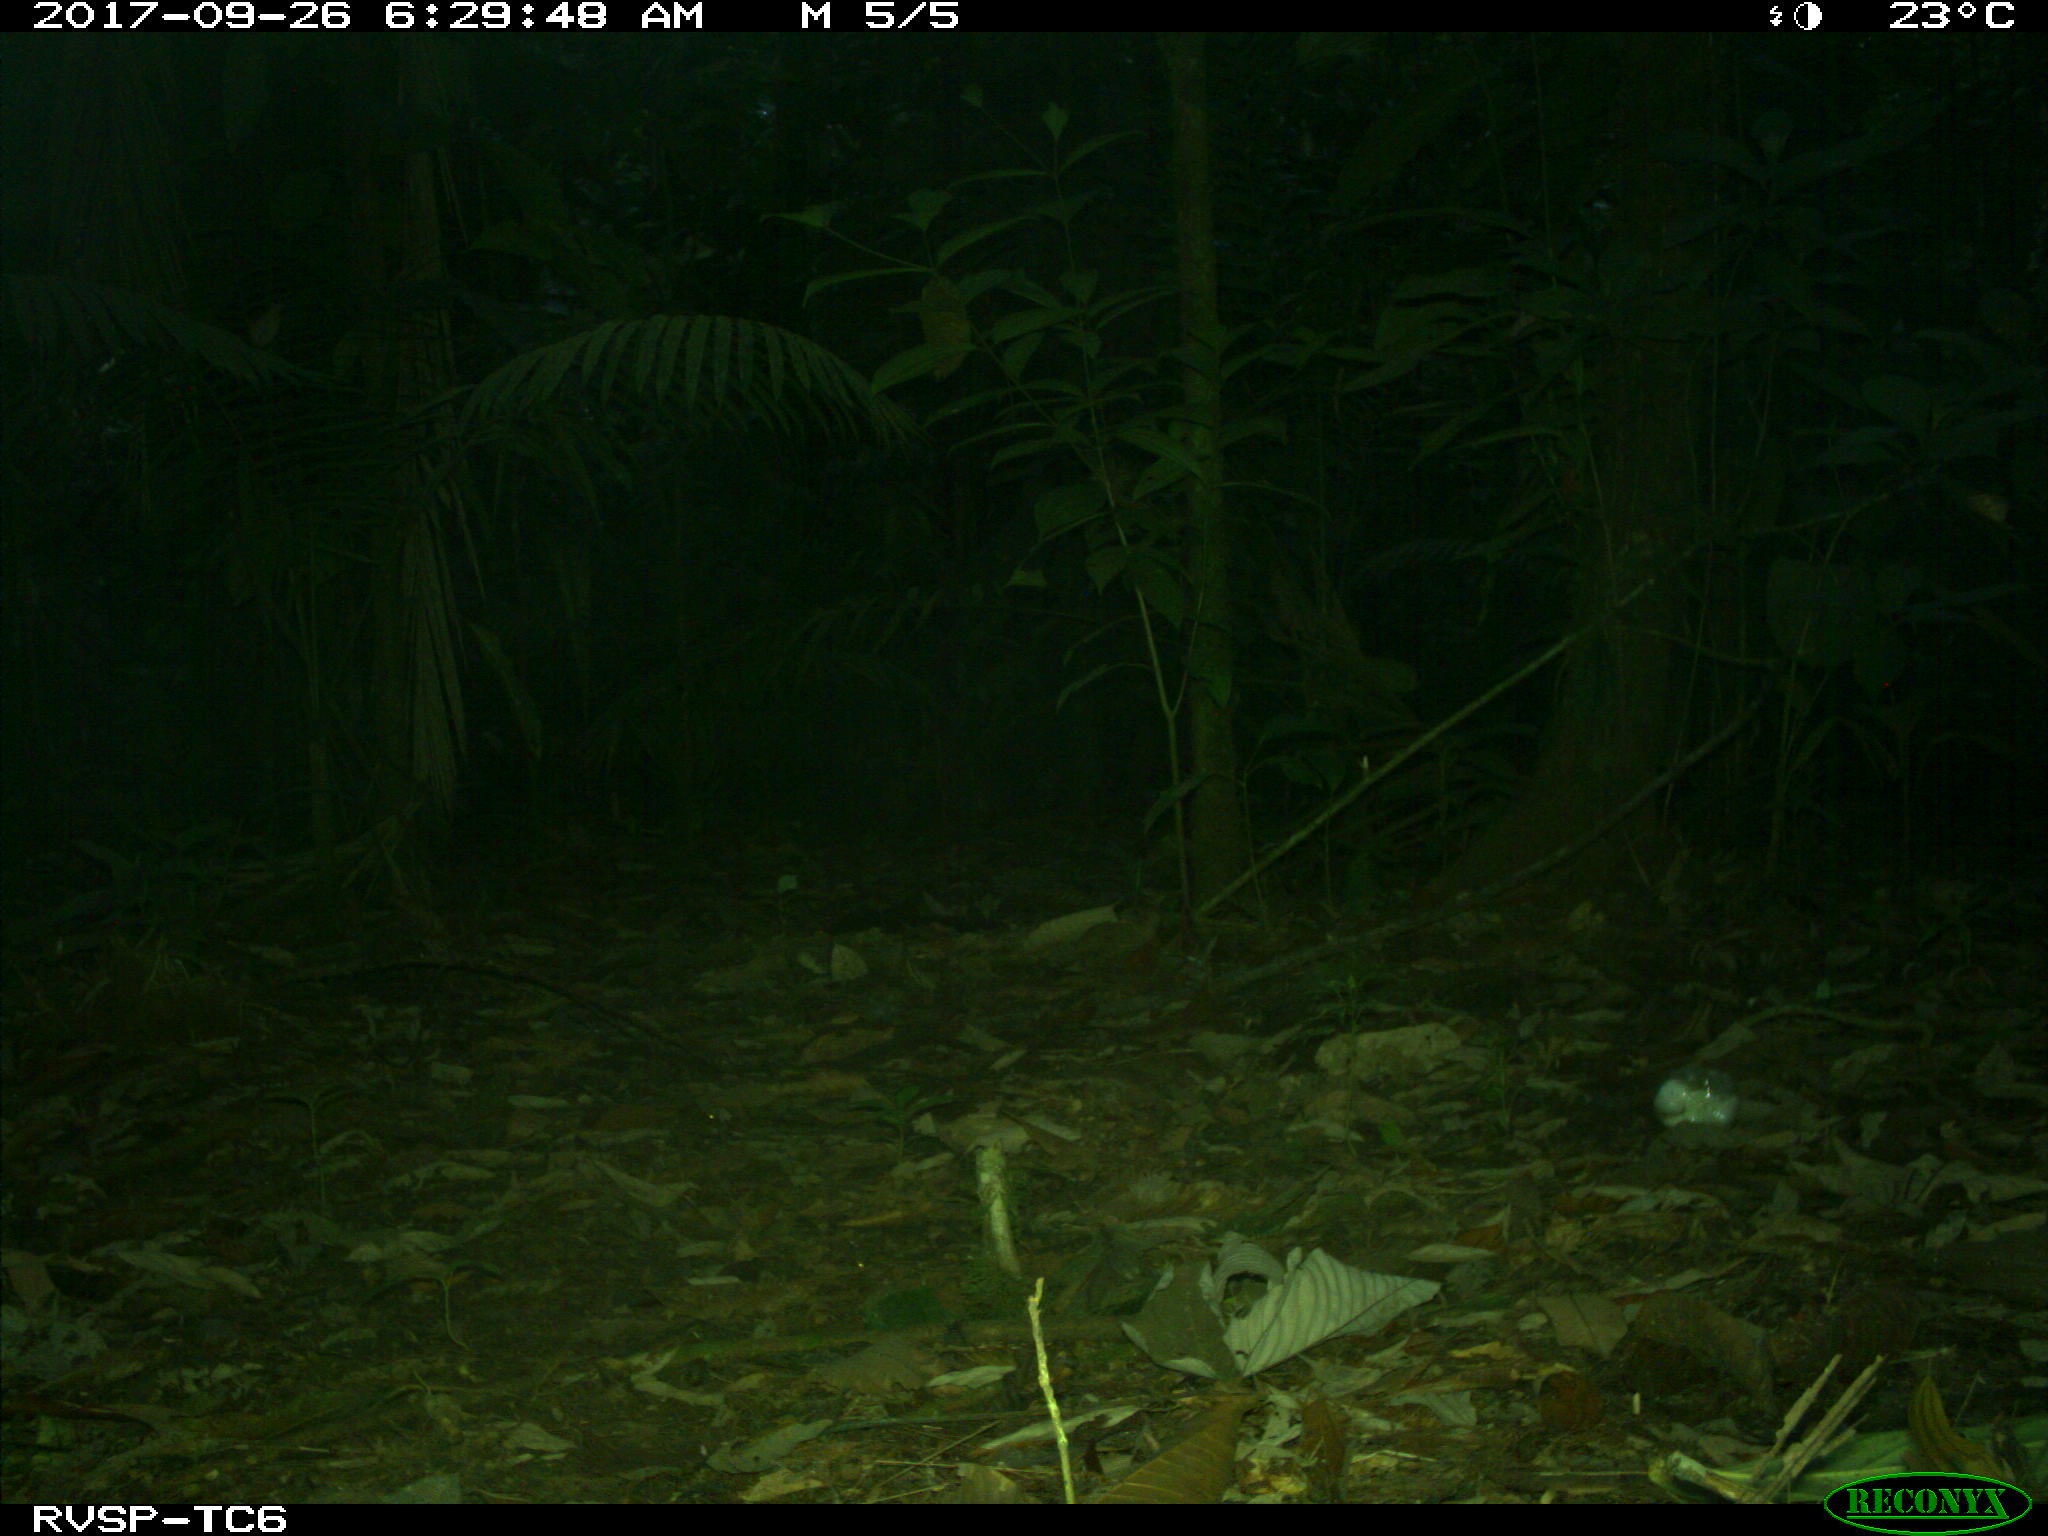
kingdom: Animalia
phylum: Chordata
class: Mammalia
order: Rodentia
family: Dasyproctidae
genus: Dasyprocta
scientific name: Dasyprocta punctata
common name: Central american agouti
